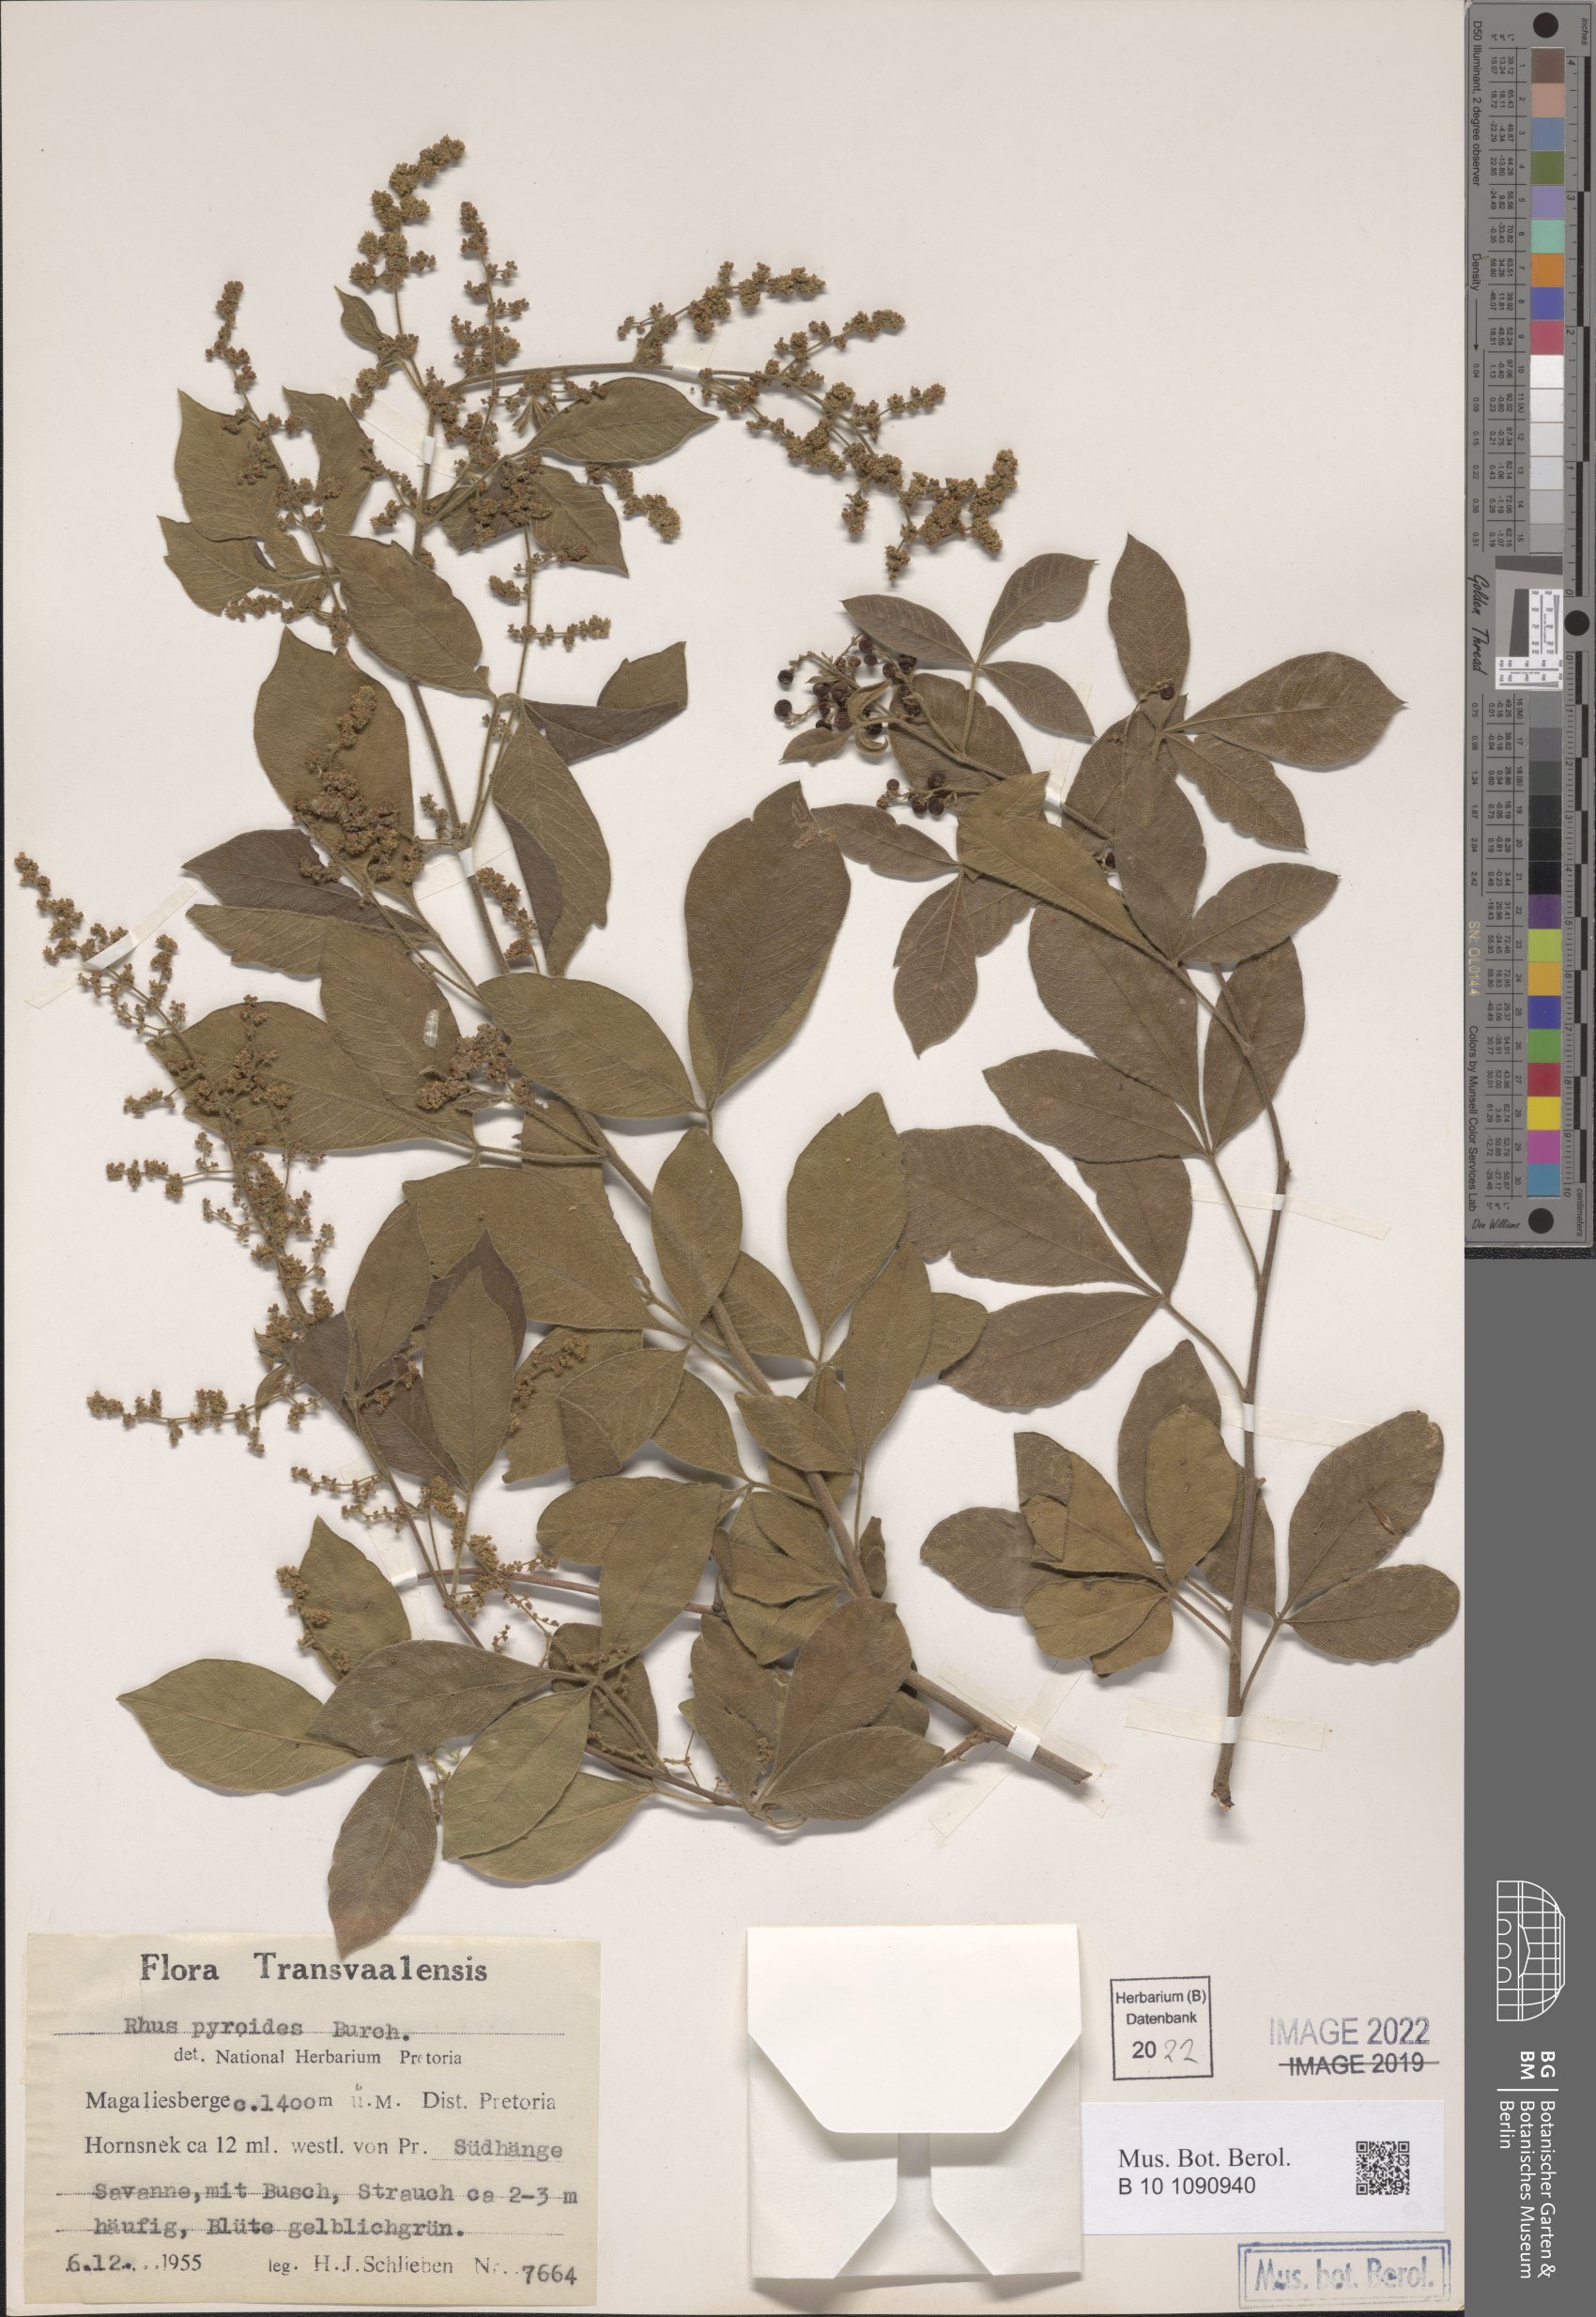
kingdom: Plantae
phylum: Tracheophyta
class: Magnoliopsida
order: Sapindales
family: Anacardiaceae
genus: Searsia
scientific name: Searsia pyroides
